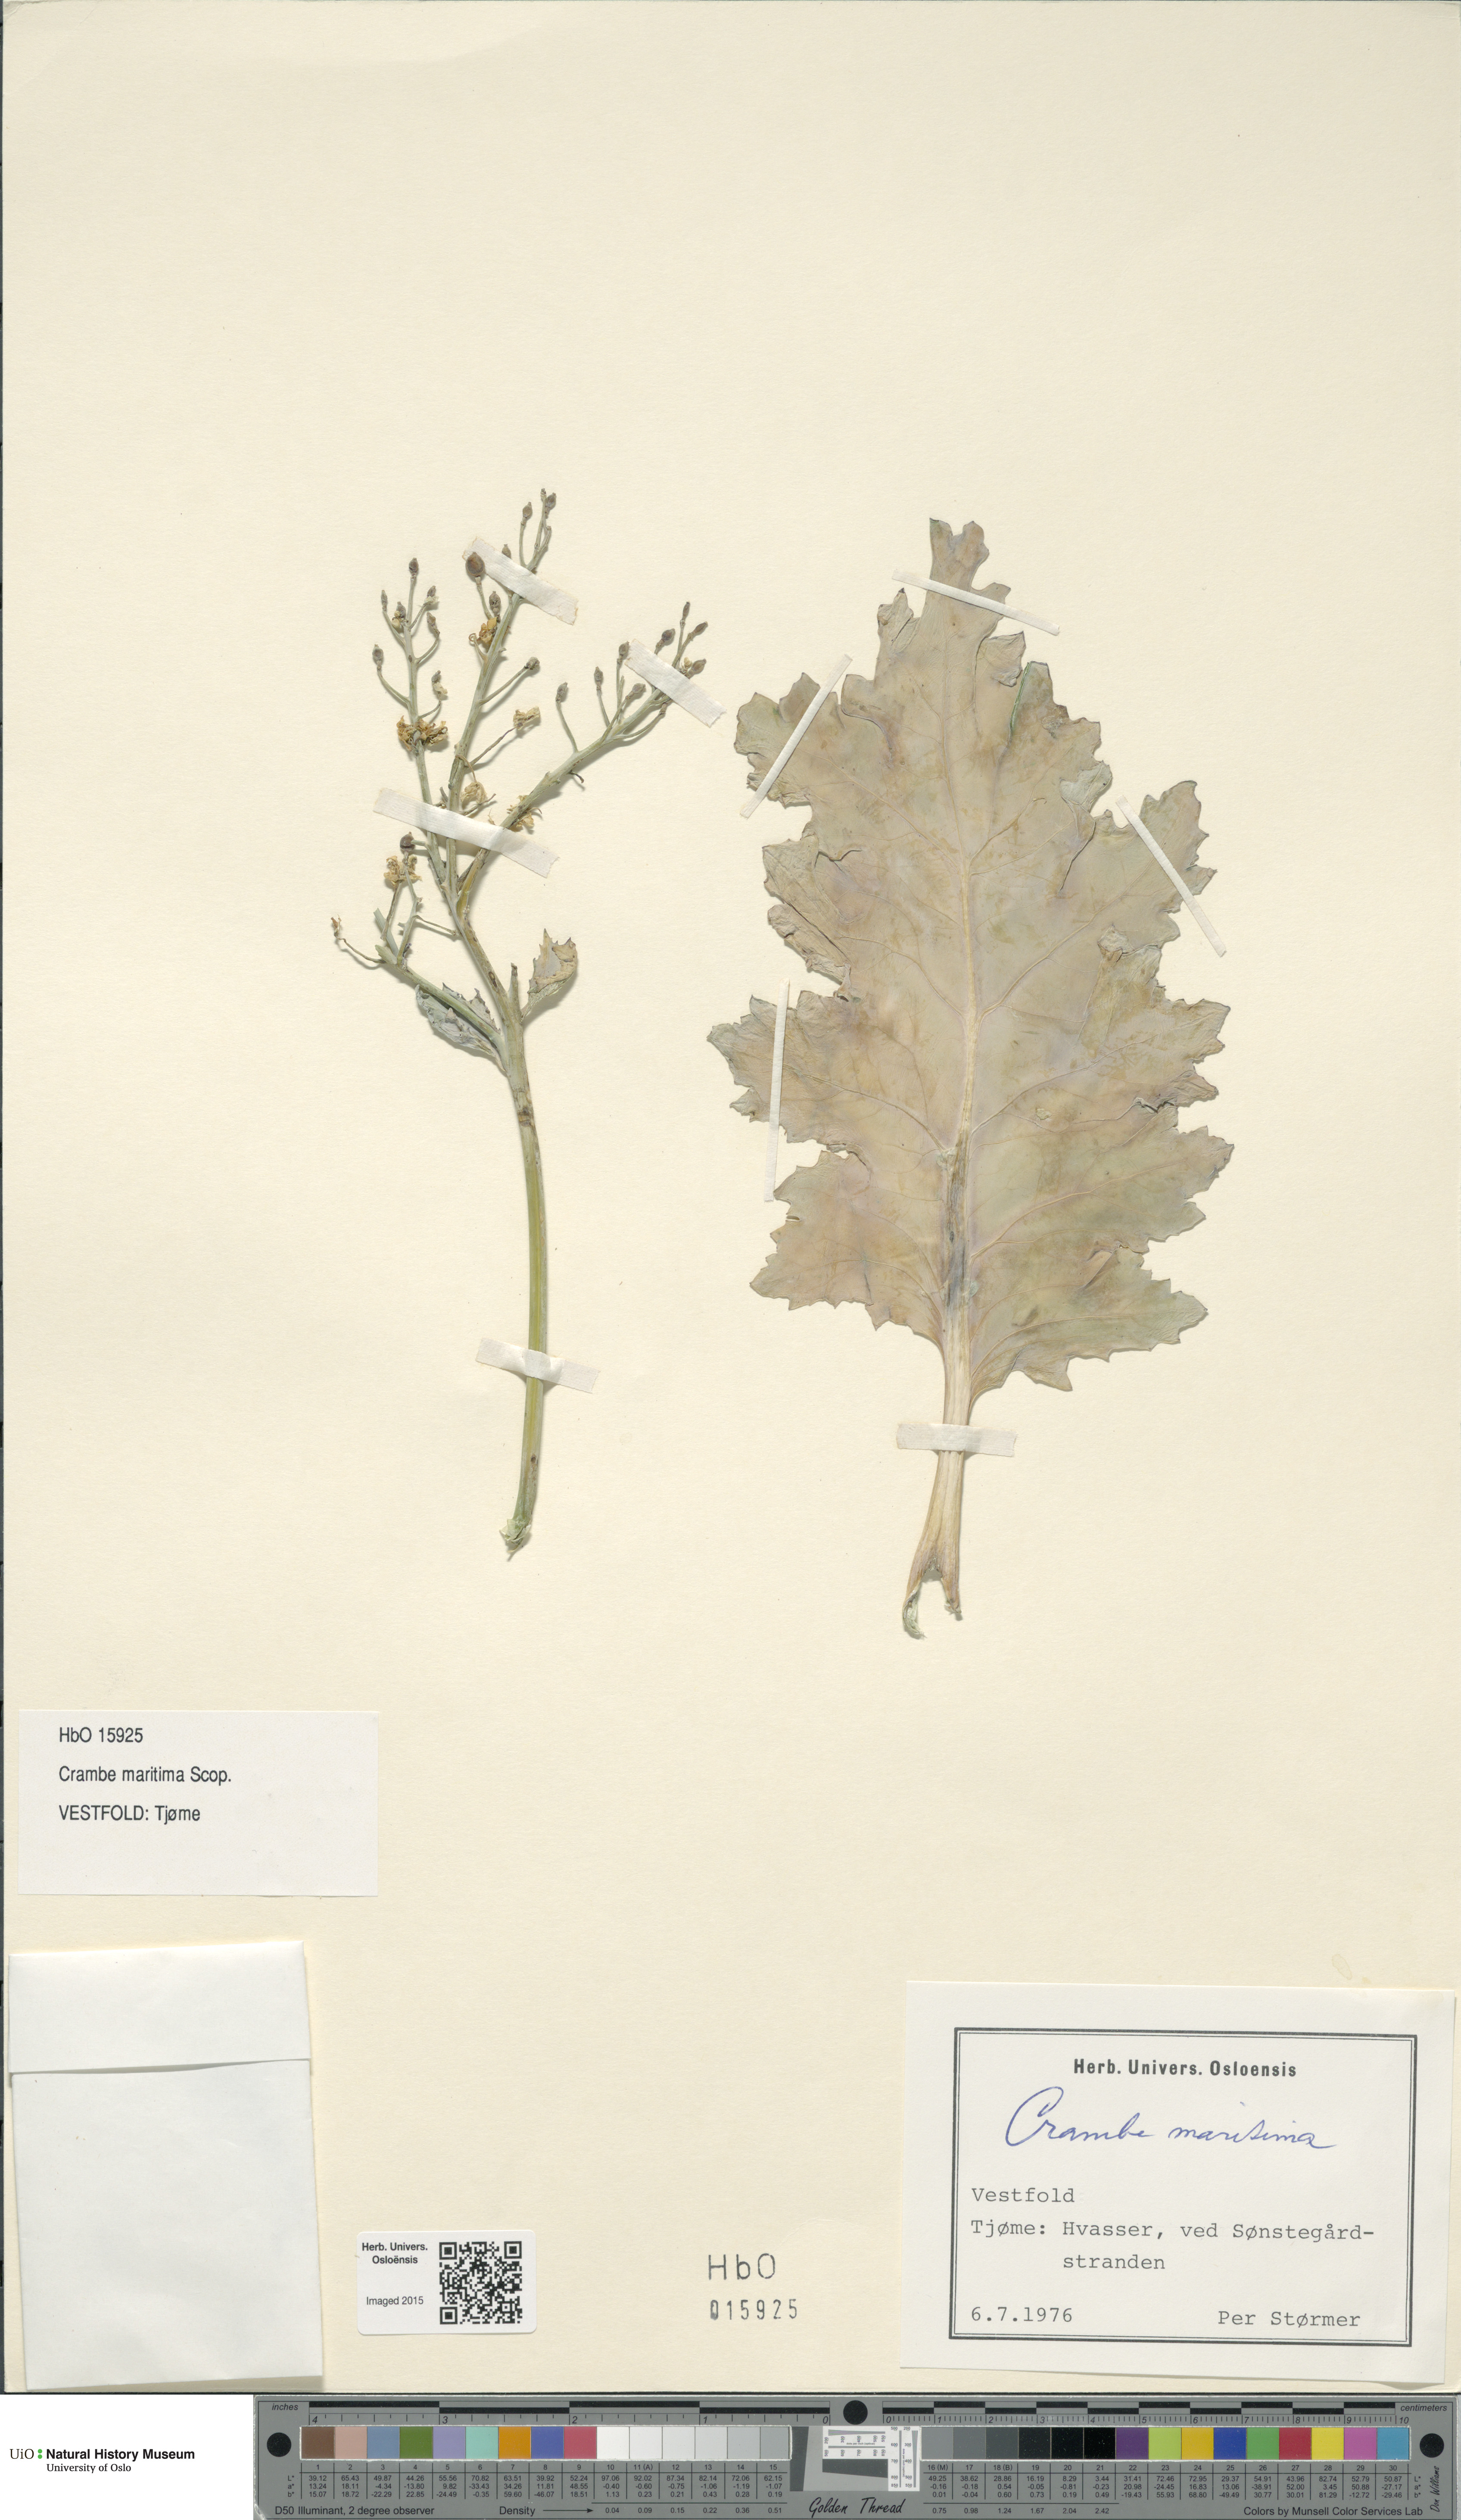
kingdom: Plantae
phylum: Tracheophyta
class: Magnoliopsida
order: Brassicales
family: Brassicaceae
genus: Crambe
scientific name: Crambe maritima
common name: Sea-kale
